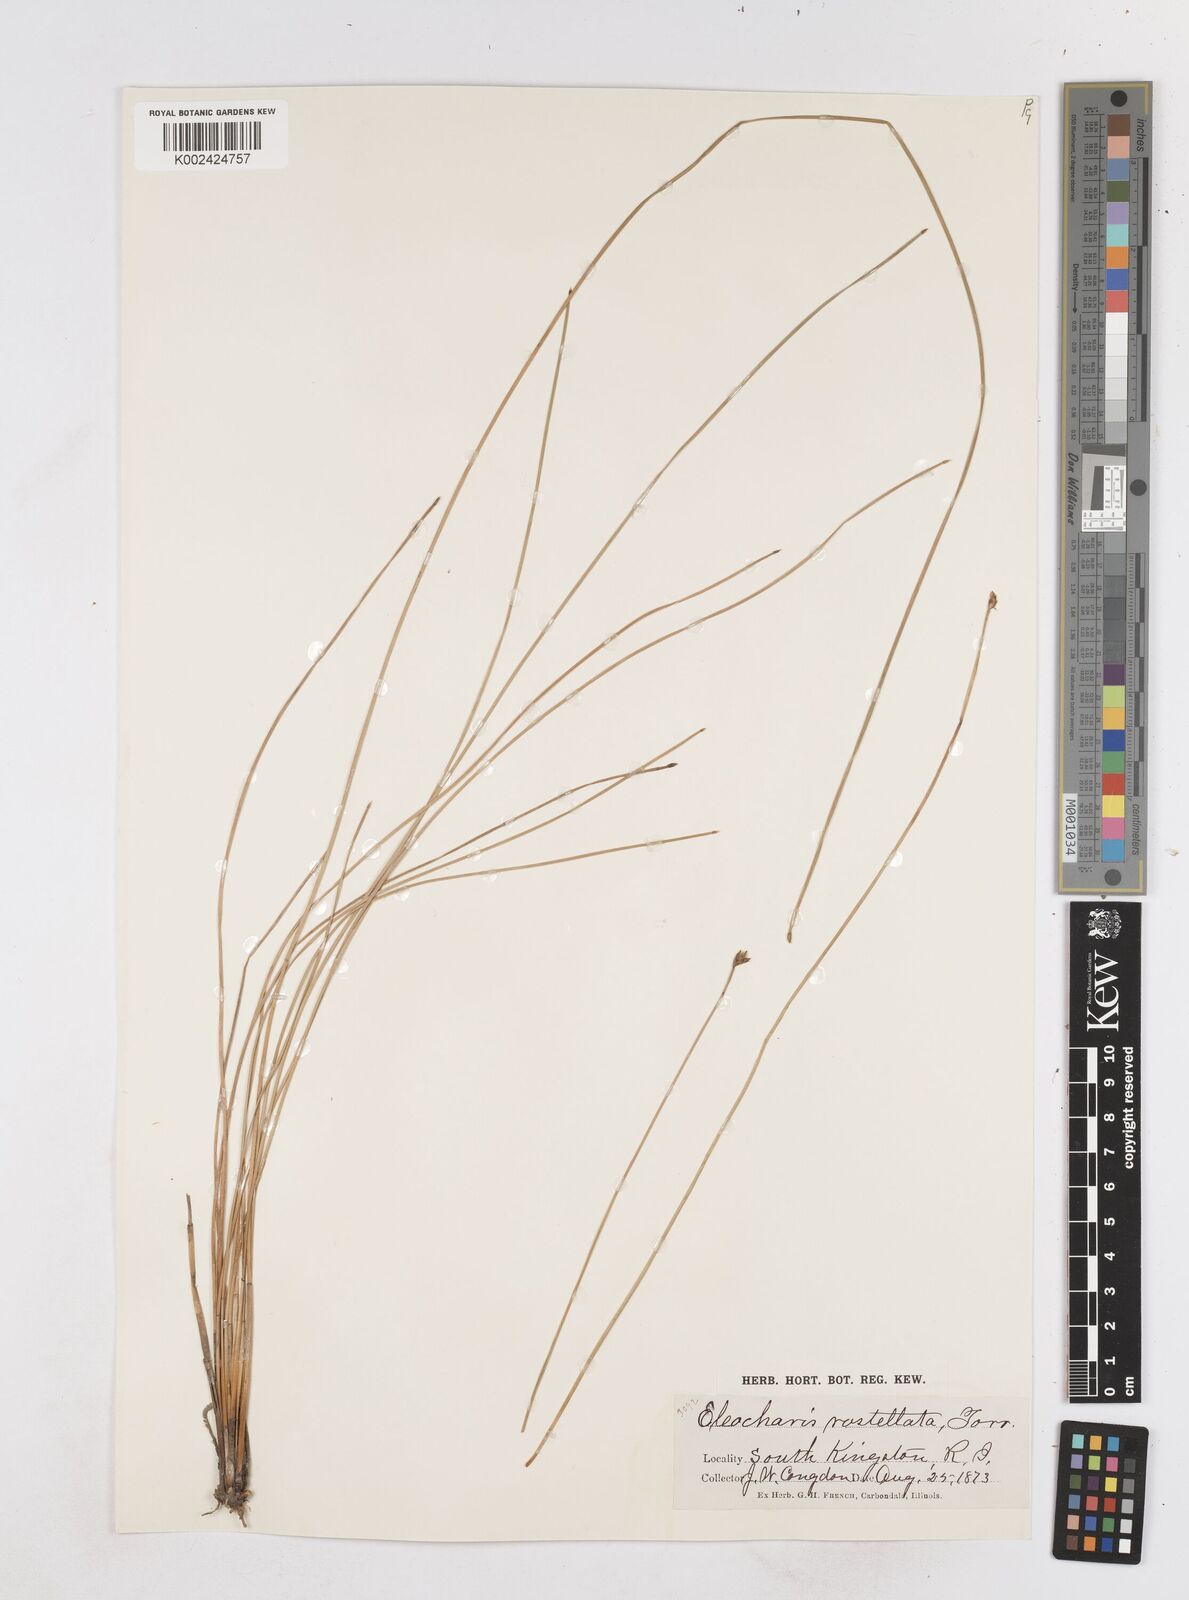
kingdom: Plantae
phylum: Tracheophyta
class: Liliopsida
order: Poales
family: Cyperaceae
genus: Eleocharis
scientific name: Eleocharis rostellata
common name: Walking sedge
